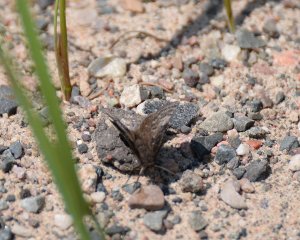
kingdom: Animalia
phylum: Arthropoda
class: Insecta
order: Lepidoptera
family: Hesperiidae
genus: Erynnis
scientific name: Erynnis icelus
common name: Dreamy Duskywing
